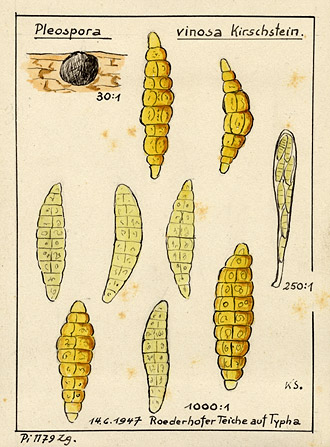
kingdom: Fungi
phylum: Ascomycota
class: Dothideomycetes
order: Pleosporales
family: Pleosporaceae
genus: Pleospora
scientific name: Pleospora vinosa
